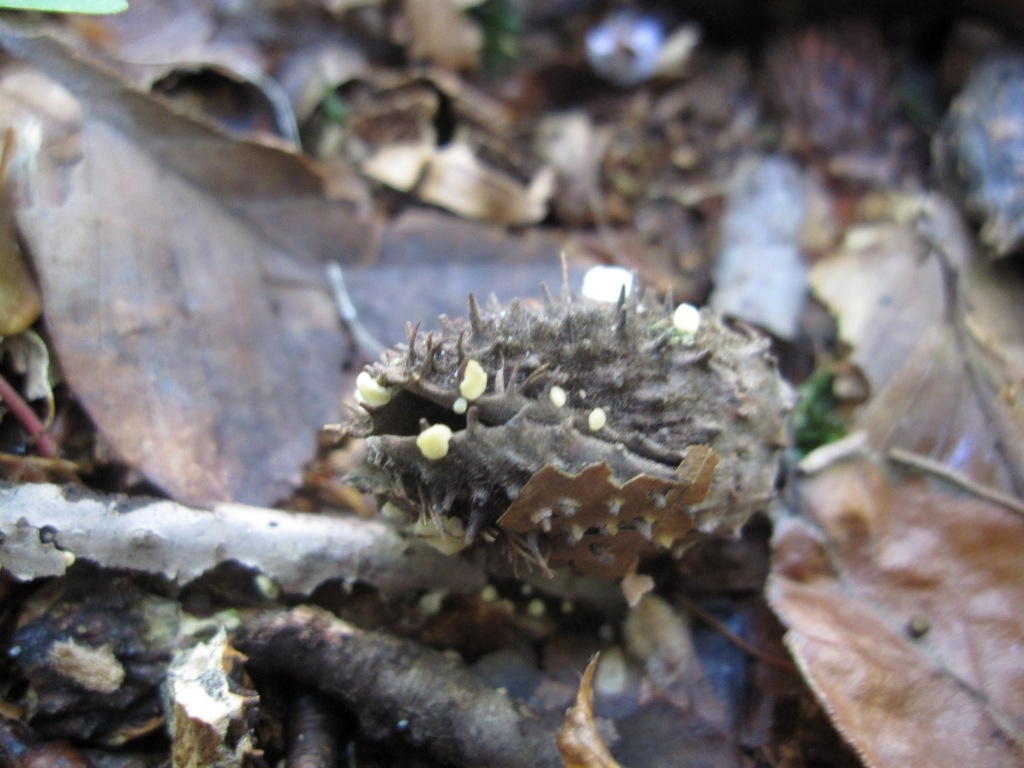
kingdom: Fungi
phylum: Ascomycota
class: Leotiomycetes
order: Helotiales
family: Helotiaceae
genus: Hymenoscyphus
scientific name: Hymenoscyphus fagineus
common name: vellugtende stilkskive
